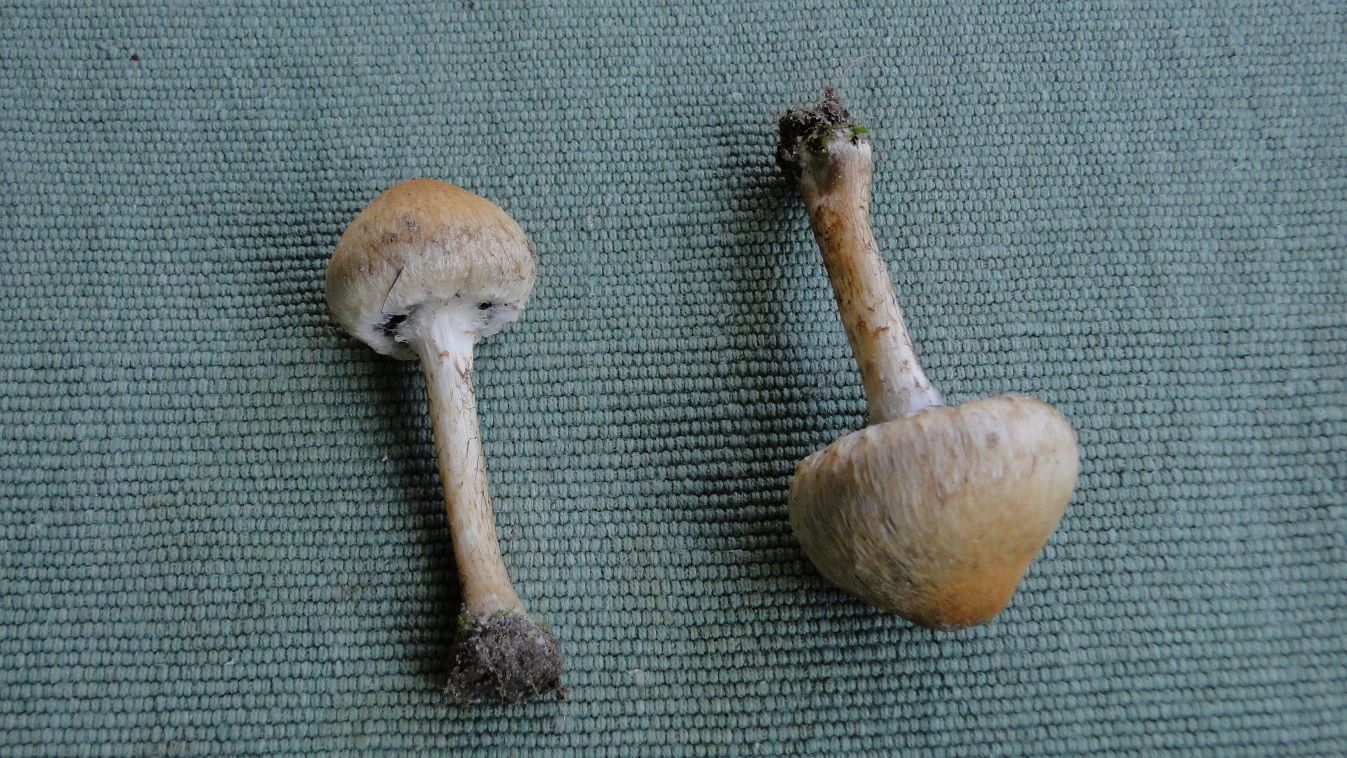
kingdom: Fungi
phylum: Basidiomycota
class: Agaricomycetes
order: Agaricales
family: Psathyrellaceae
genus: Lacrymaria
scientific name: Lacrymaria lacrymabunda
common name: grædende mørkhat
